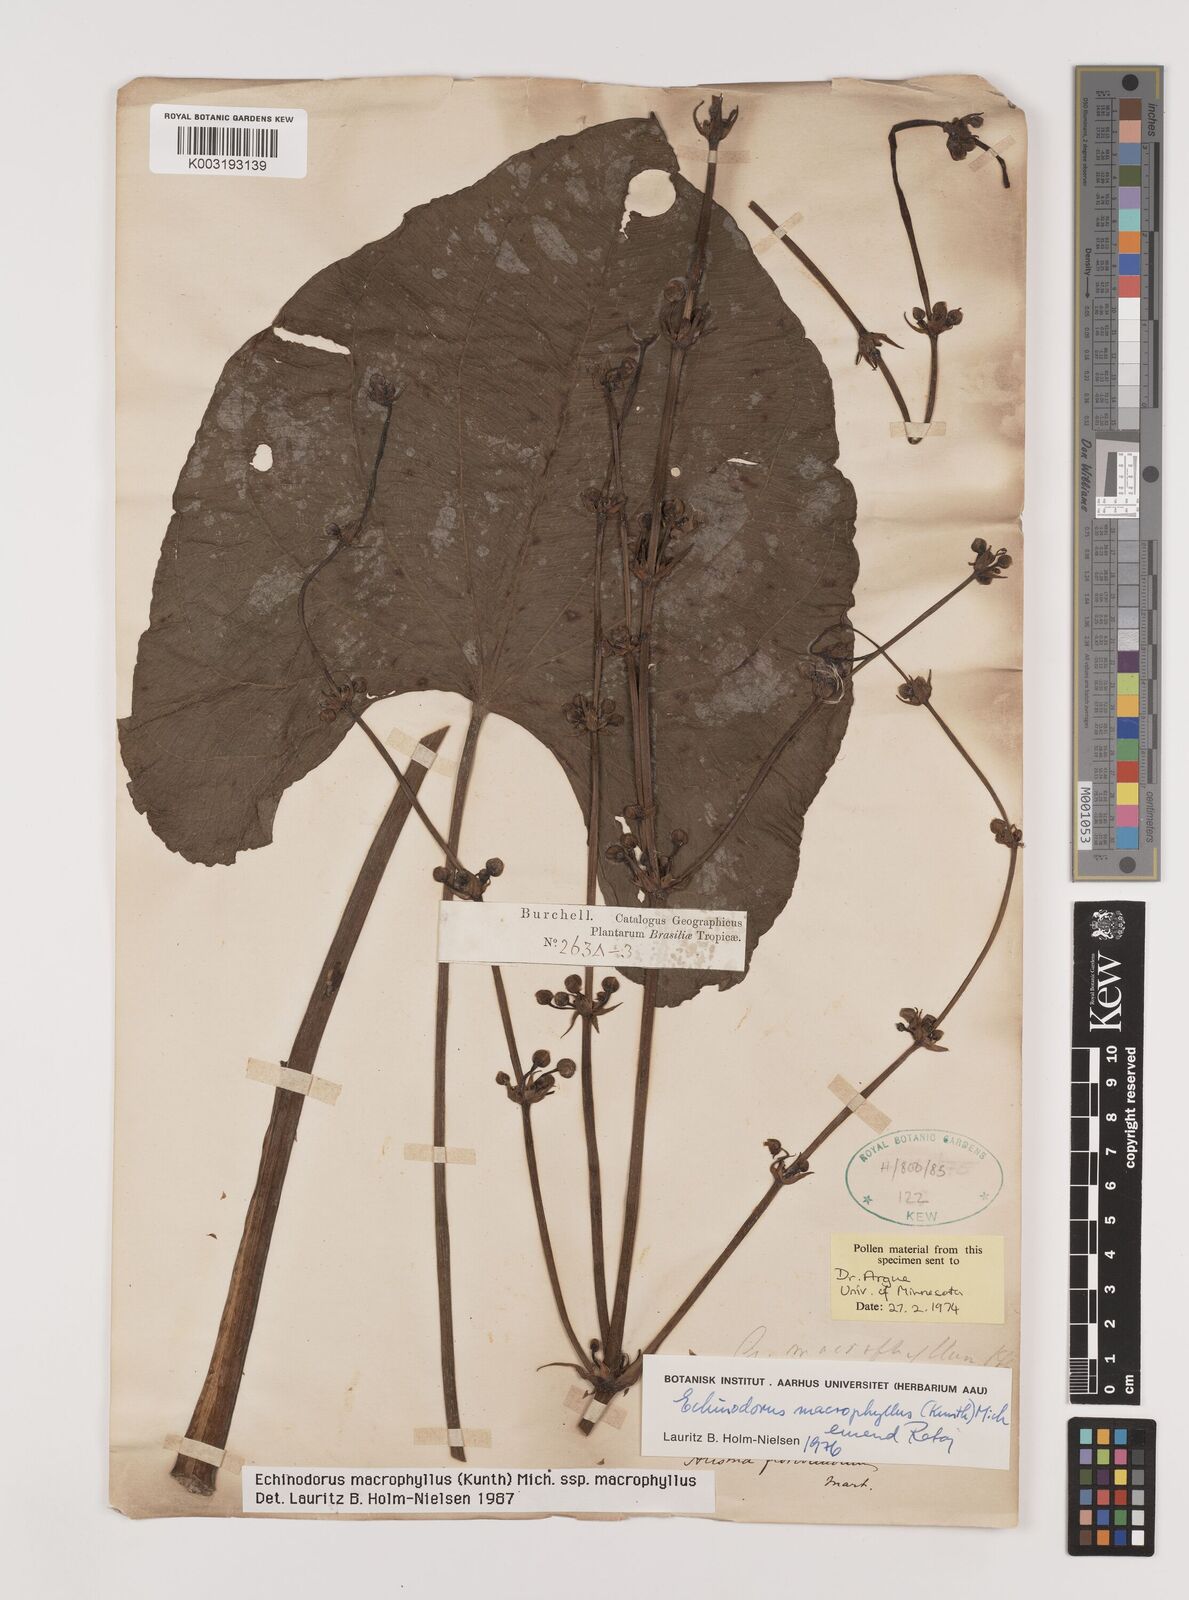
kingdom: Plantae
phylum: Tracheophyta
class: Liliopsida
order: Alismatales
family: Alismataceae
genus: Aquarius
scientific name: Aquarius macrophyllus
